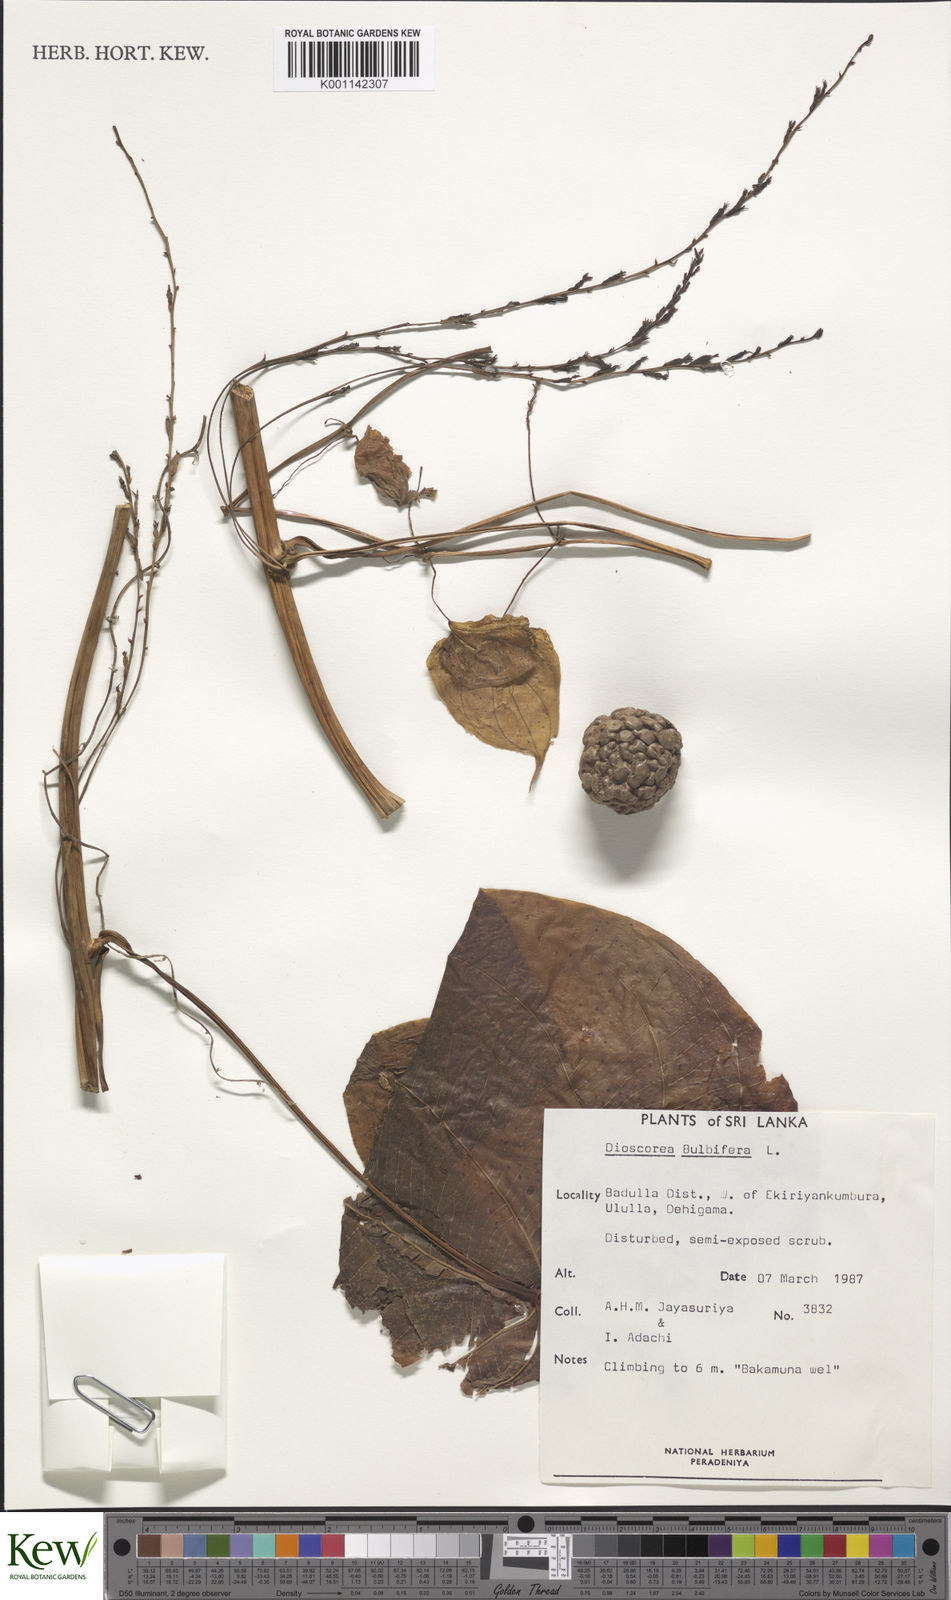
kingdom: Plantae
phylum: Tracheophyta
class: Liliopsida
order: Dioscoreales
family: Dioscoreaceae
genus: Dioscorea
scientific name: Dioscorea
